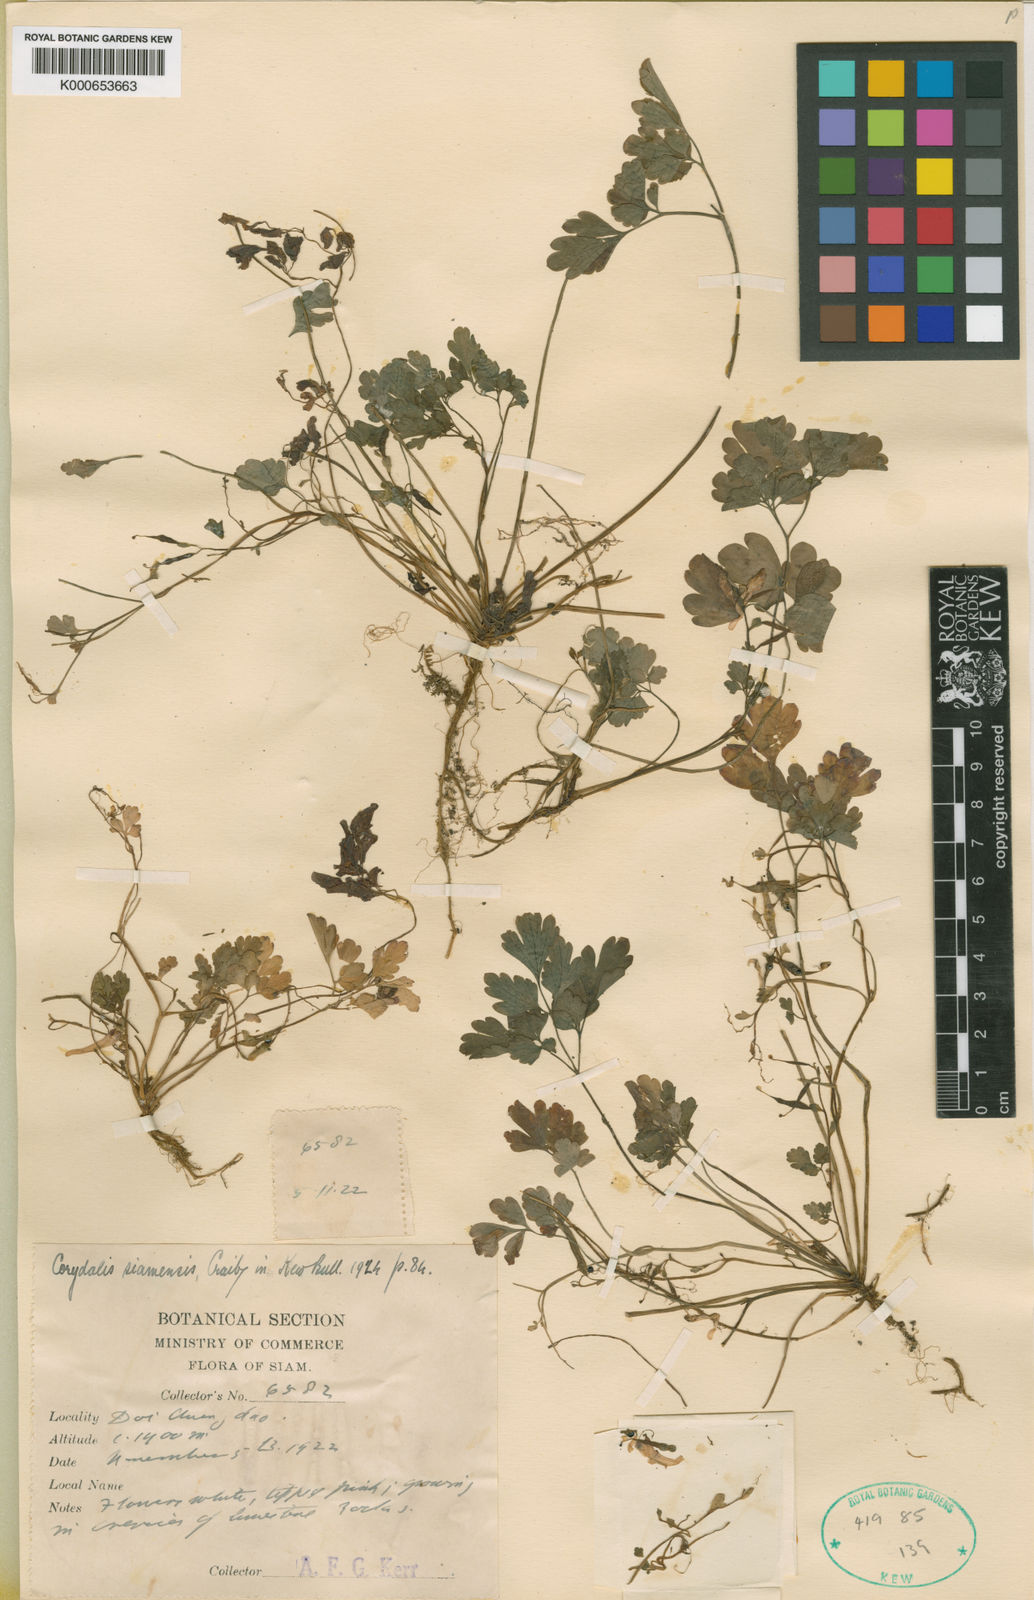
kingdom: Plantae
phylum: Tracheophyta
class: Magnoliopsida
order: Ranunculales
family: Papaveraceae
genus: Corydalis
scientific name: Corydalis leptocarpa
